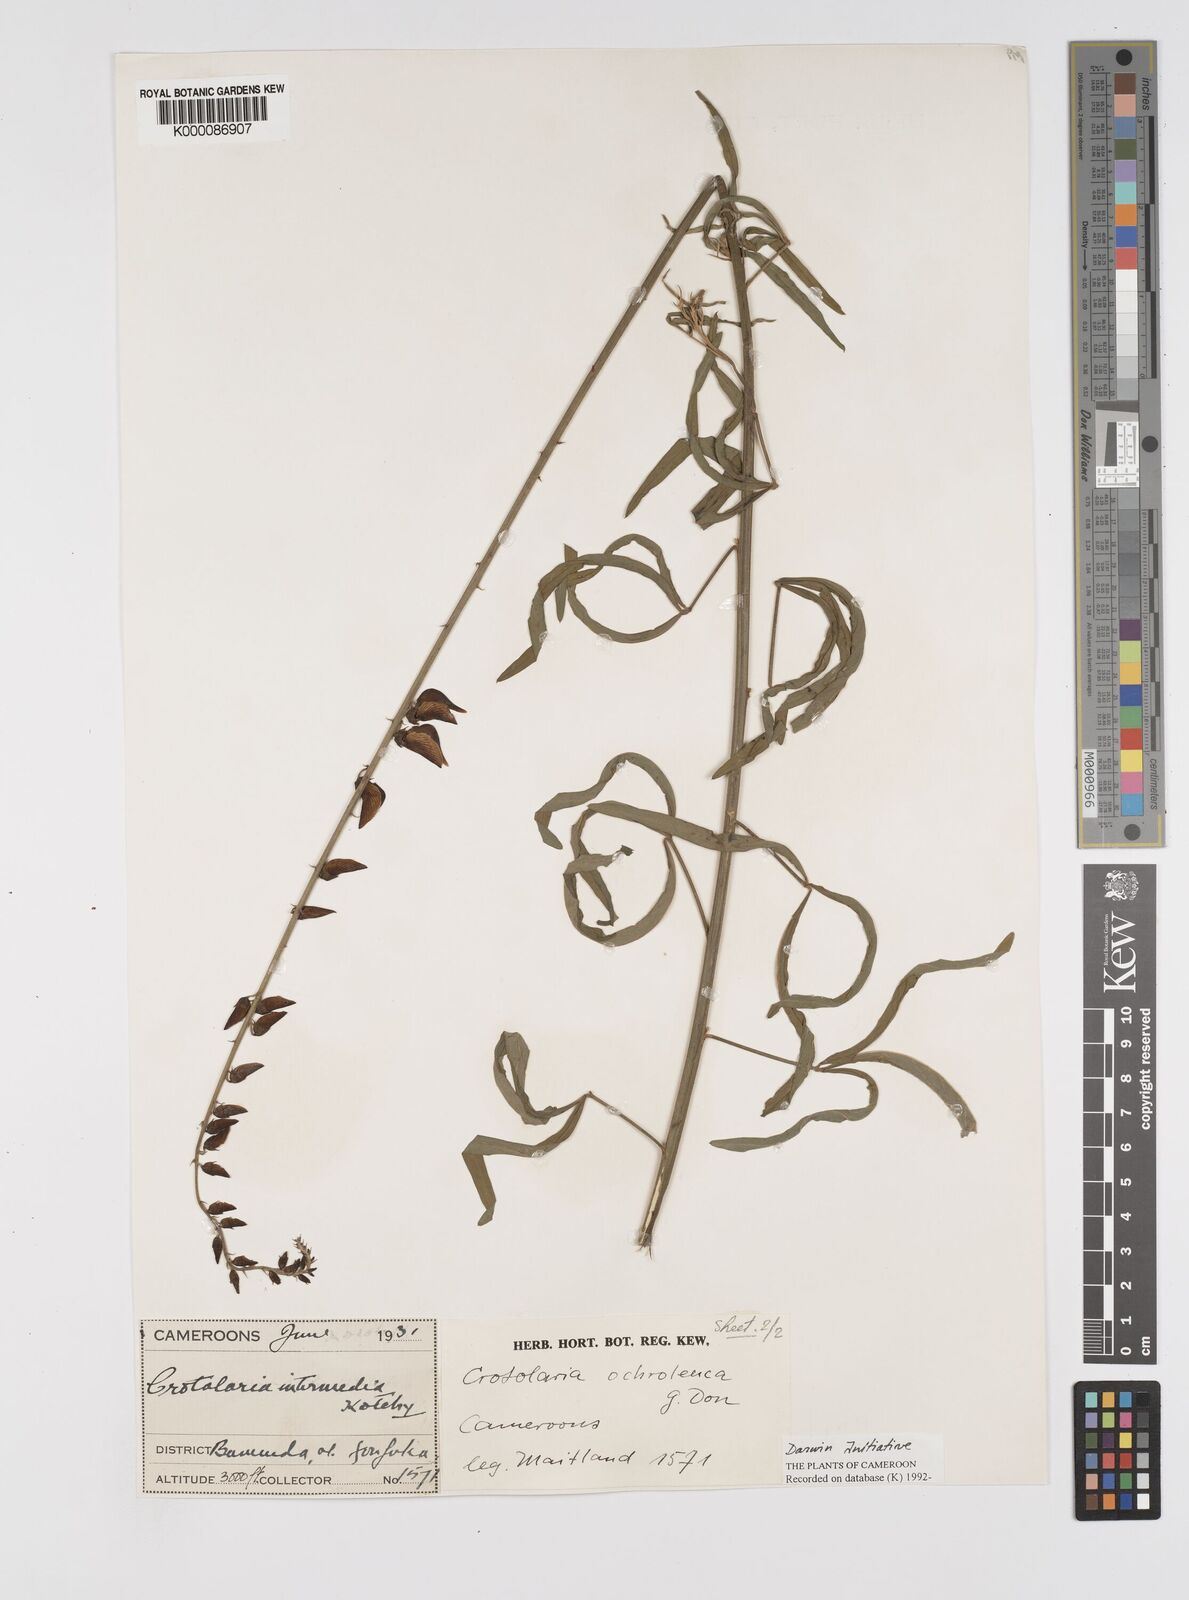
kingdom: Plantae
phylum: Tracheophyta
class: Magnoliopsida
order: Fabales
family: Fabaceae
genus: Crotalaria
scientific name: Crotalaria ochroleuca
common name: Slender leaf rattlebox
